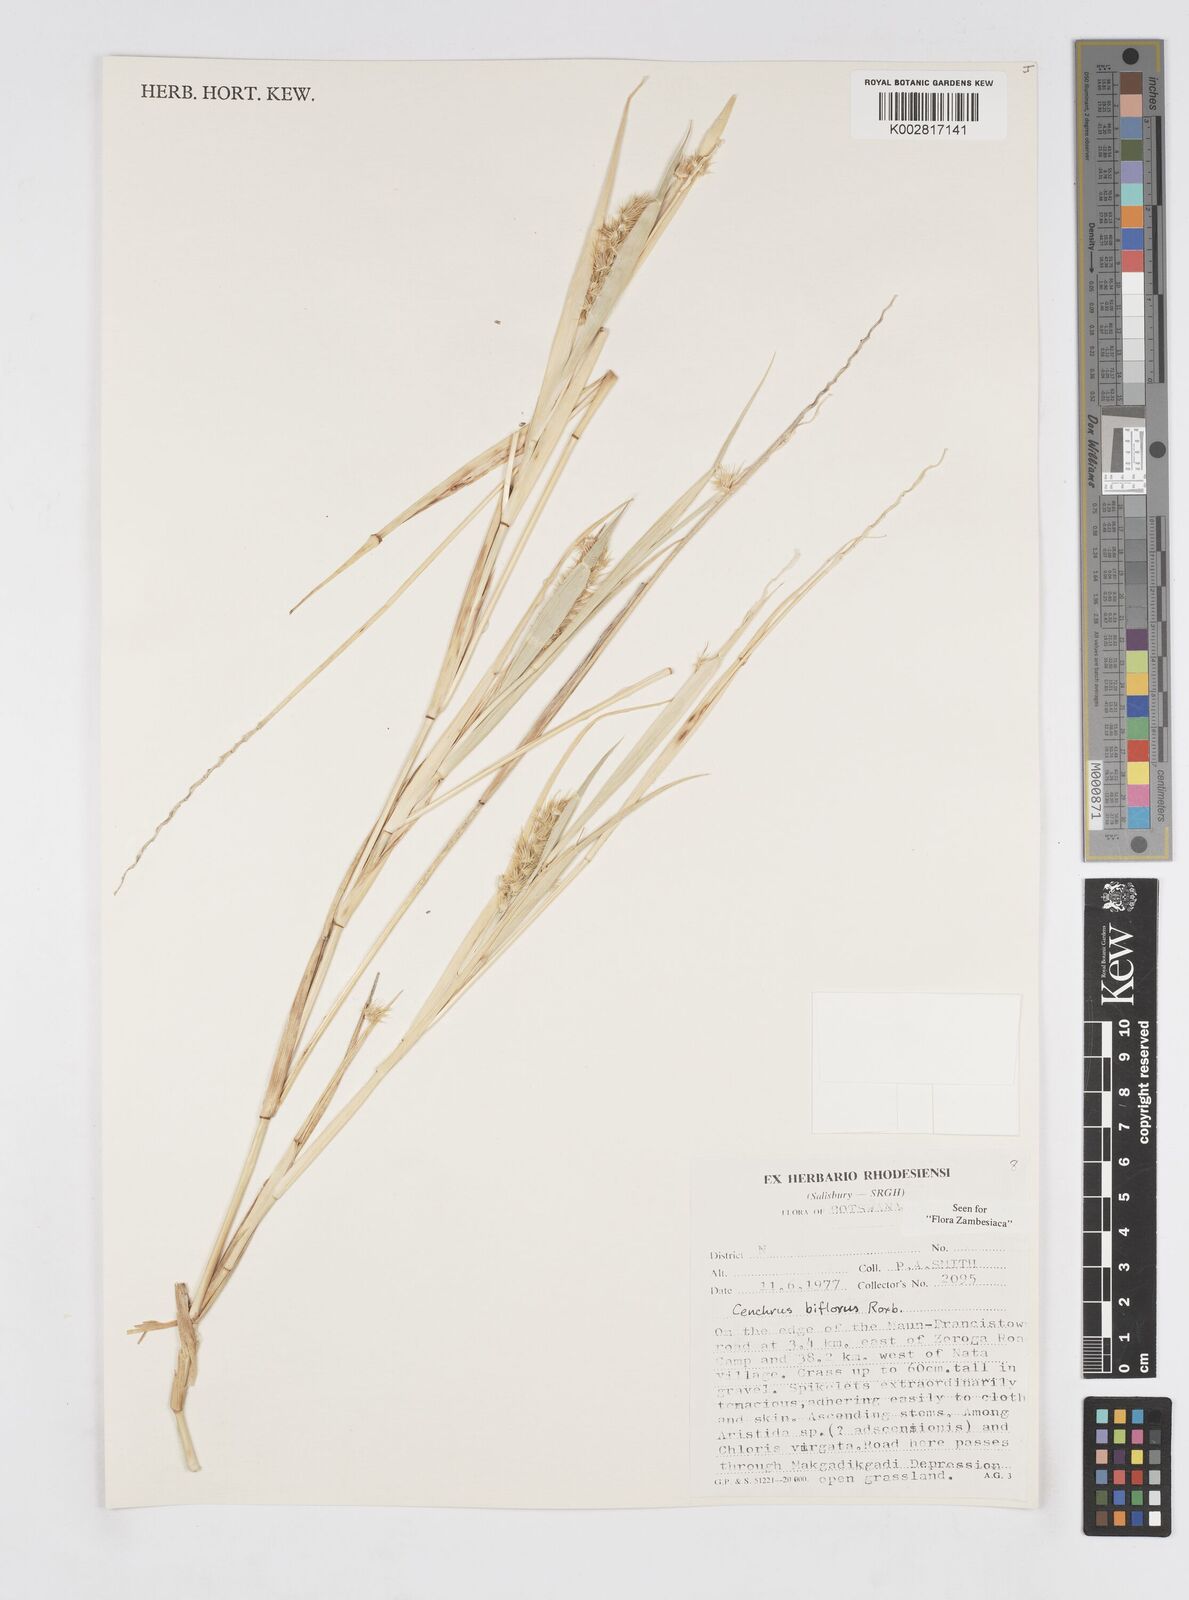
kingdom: Plantae
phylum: Tracheophyta
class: Liliopsida
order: Poales
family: Poaceae
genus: Cenchrus
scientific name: Cenchrus biflorus
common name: Indian sandbur
